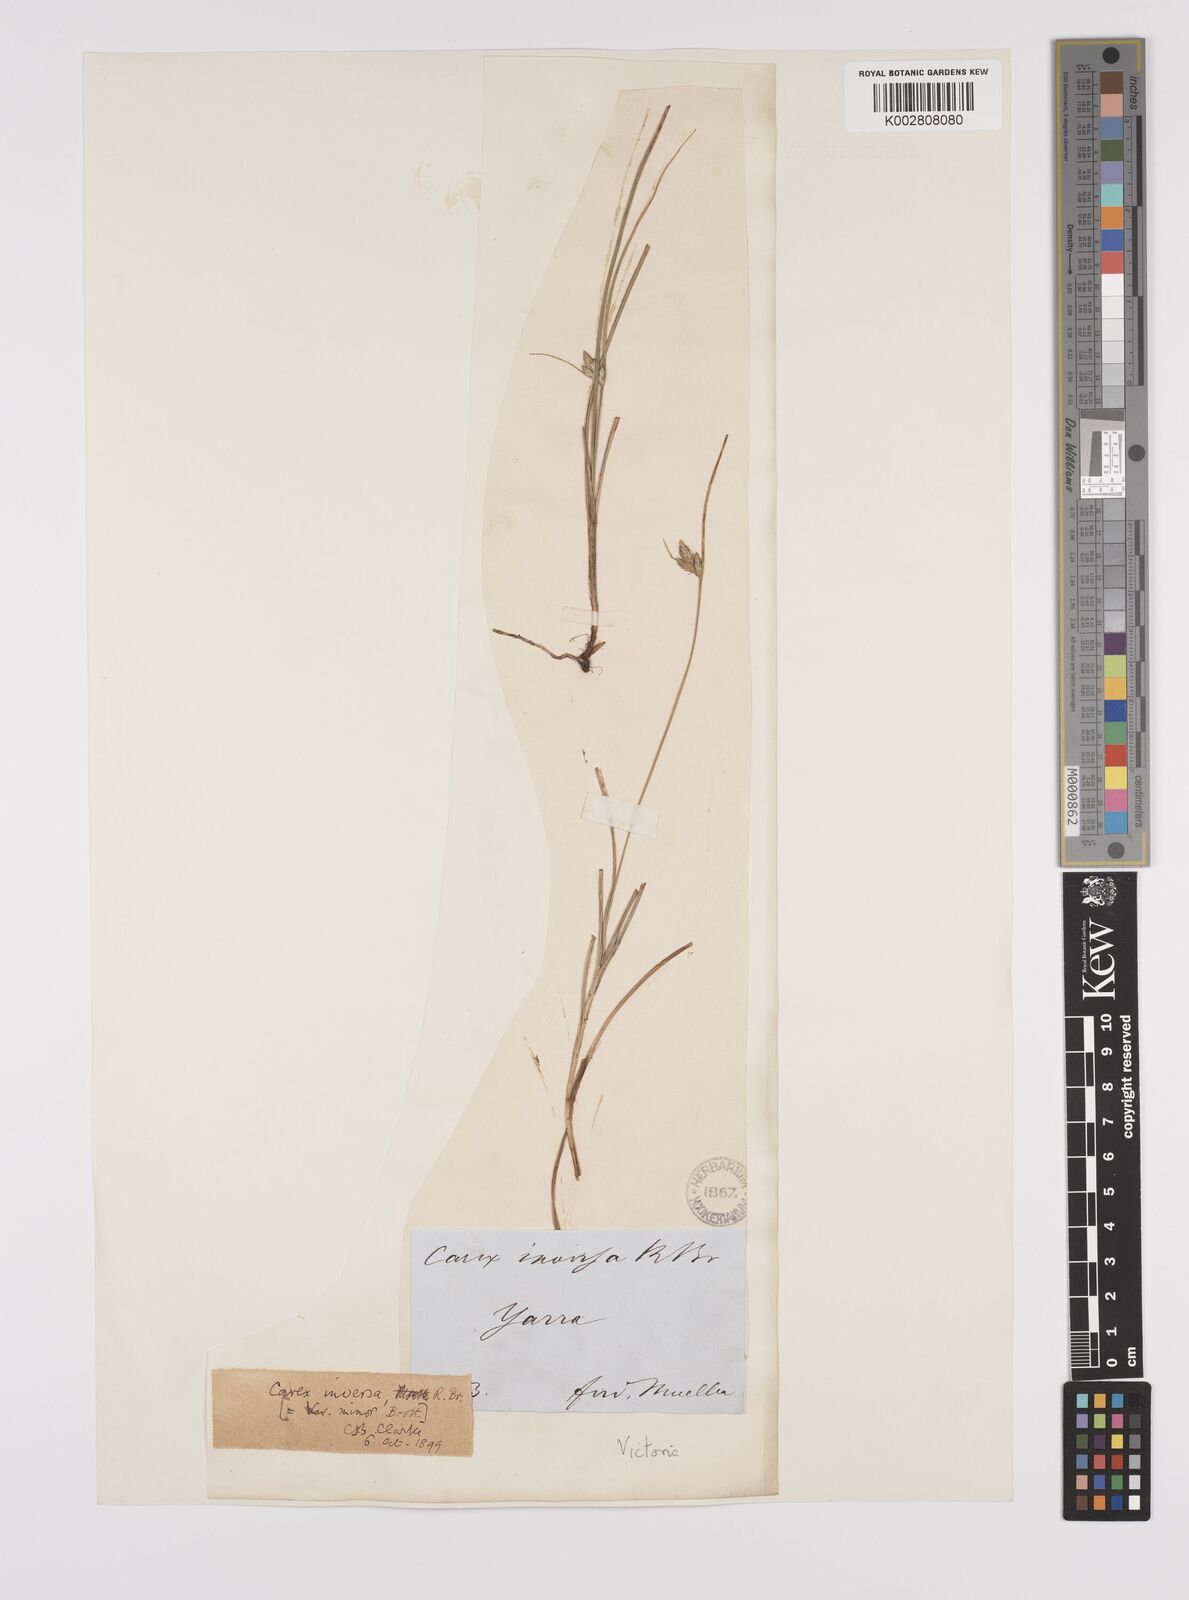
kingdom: Plantae
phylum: Tracheophyta
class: Liliopsida
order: Poales
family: Cyperaceae
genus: Carex
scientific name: Carex inversa
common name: Knob sedge
